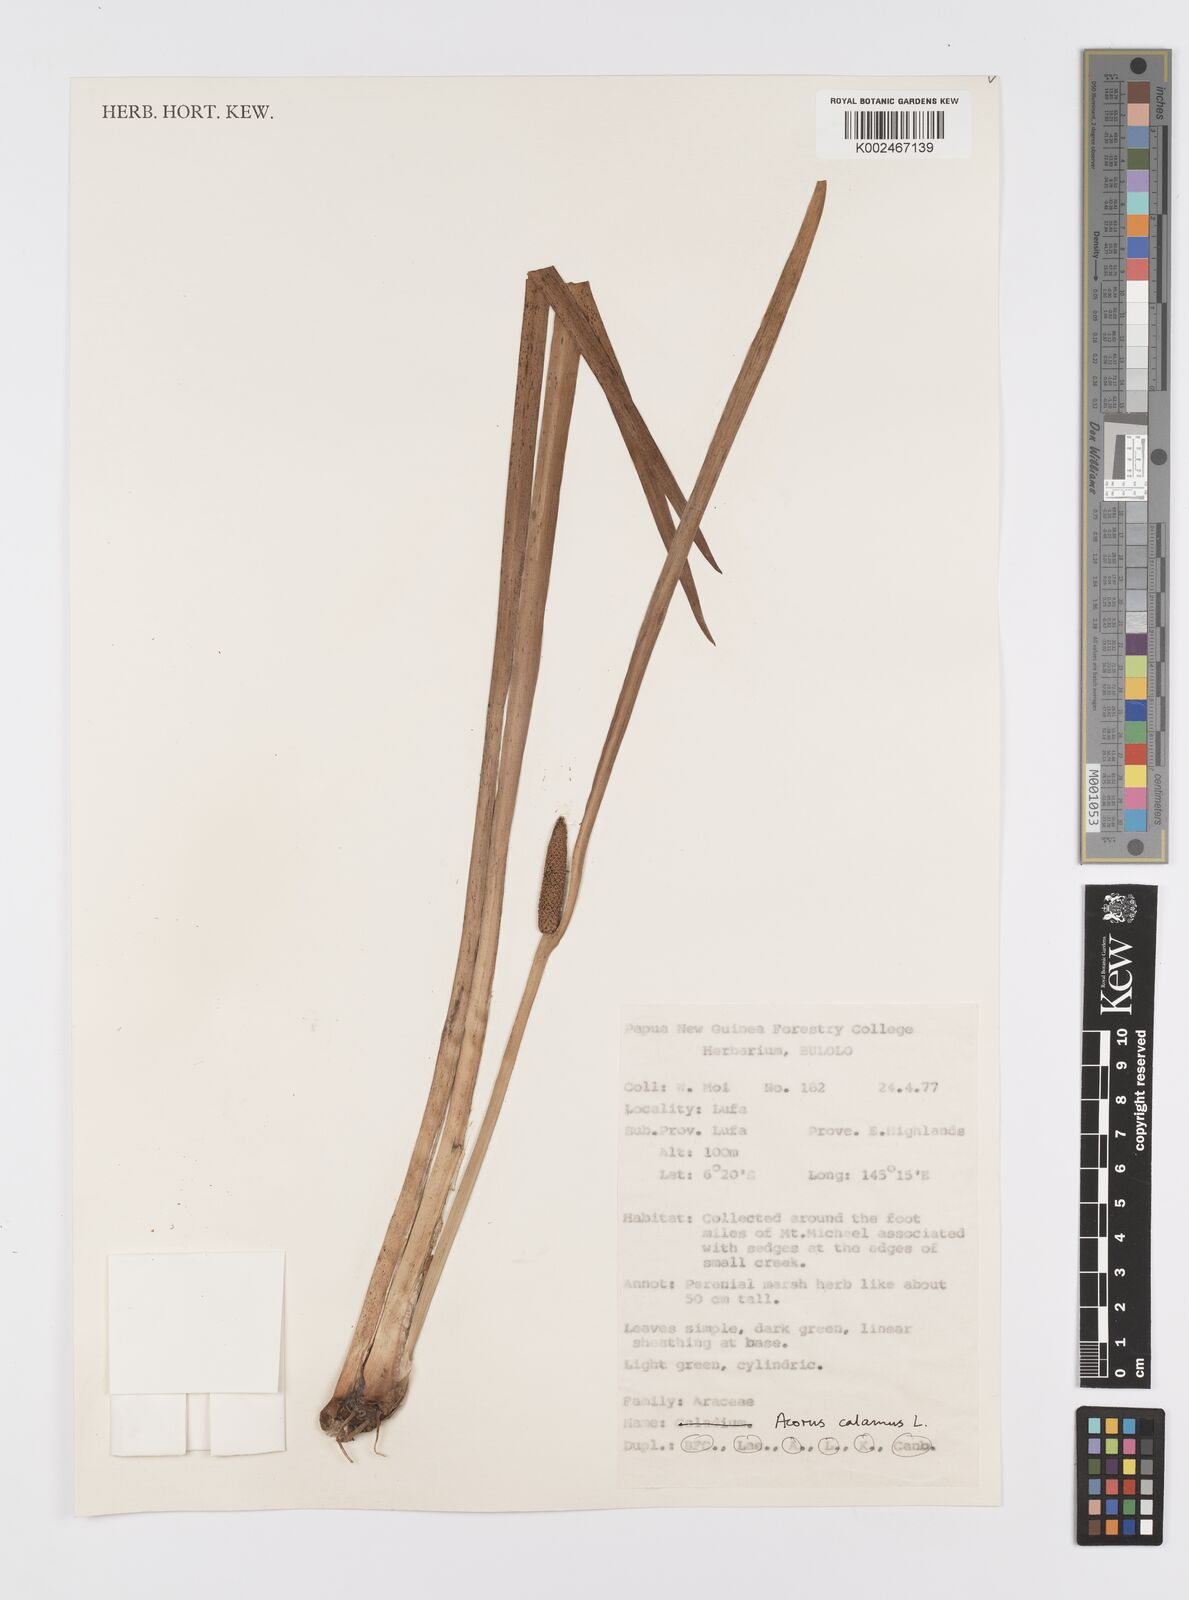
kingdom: Plantae
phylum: Tracheophyta
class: Liliopsida
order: Acorales
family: Acoraceae
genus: Acorus
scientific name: Acorus calamus
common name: Sweet-flag
